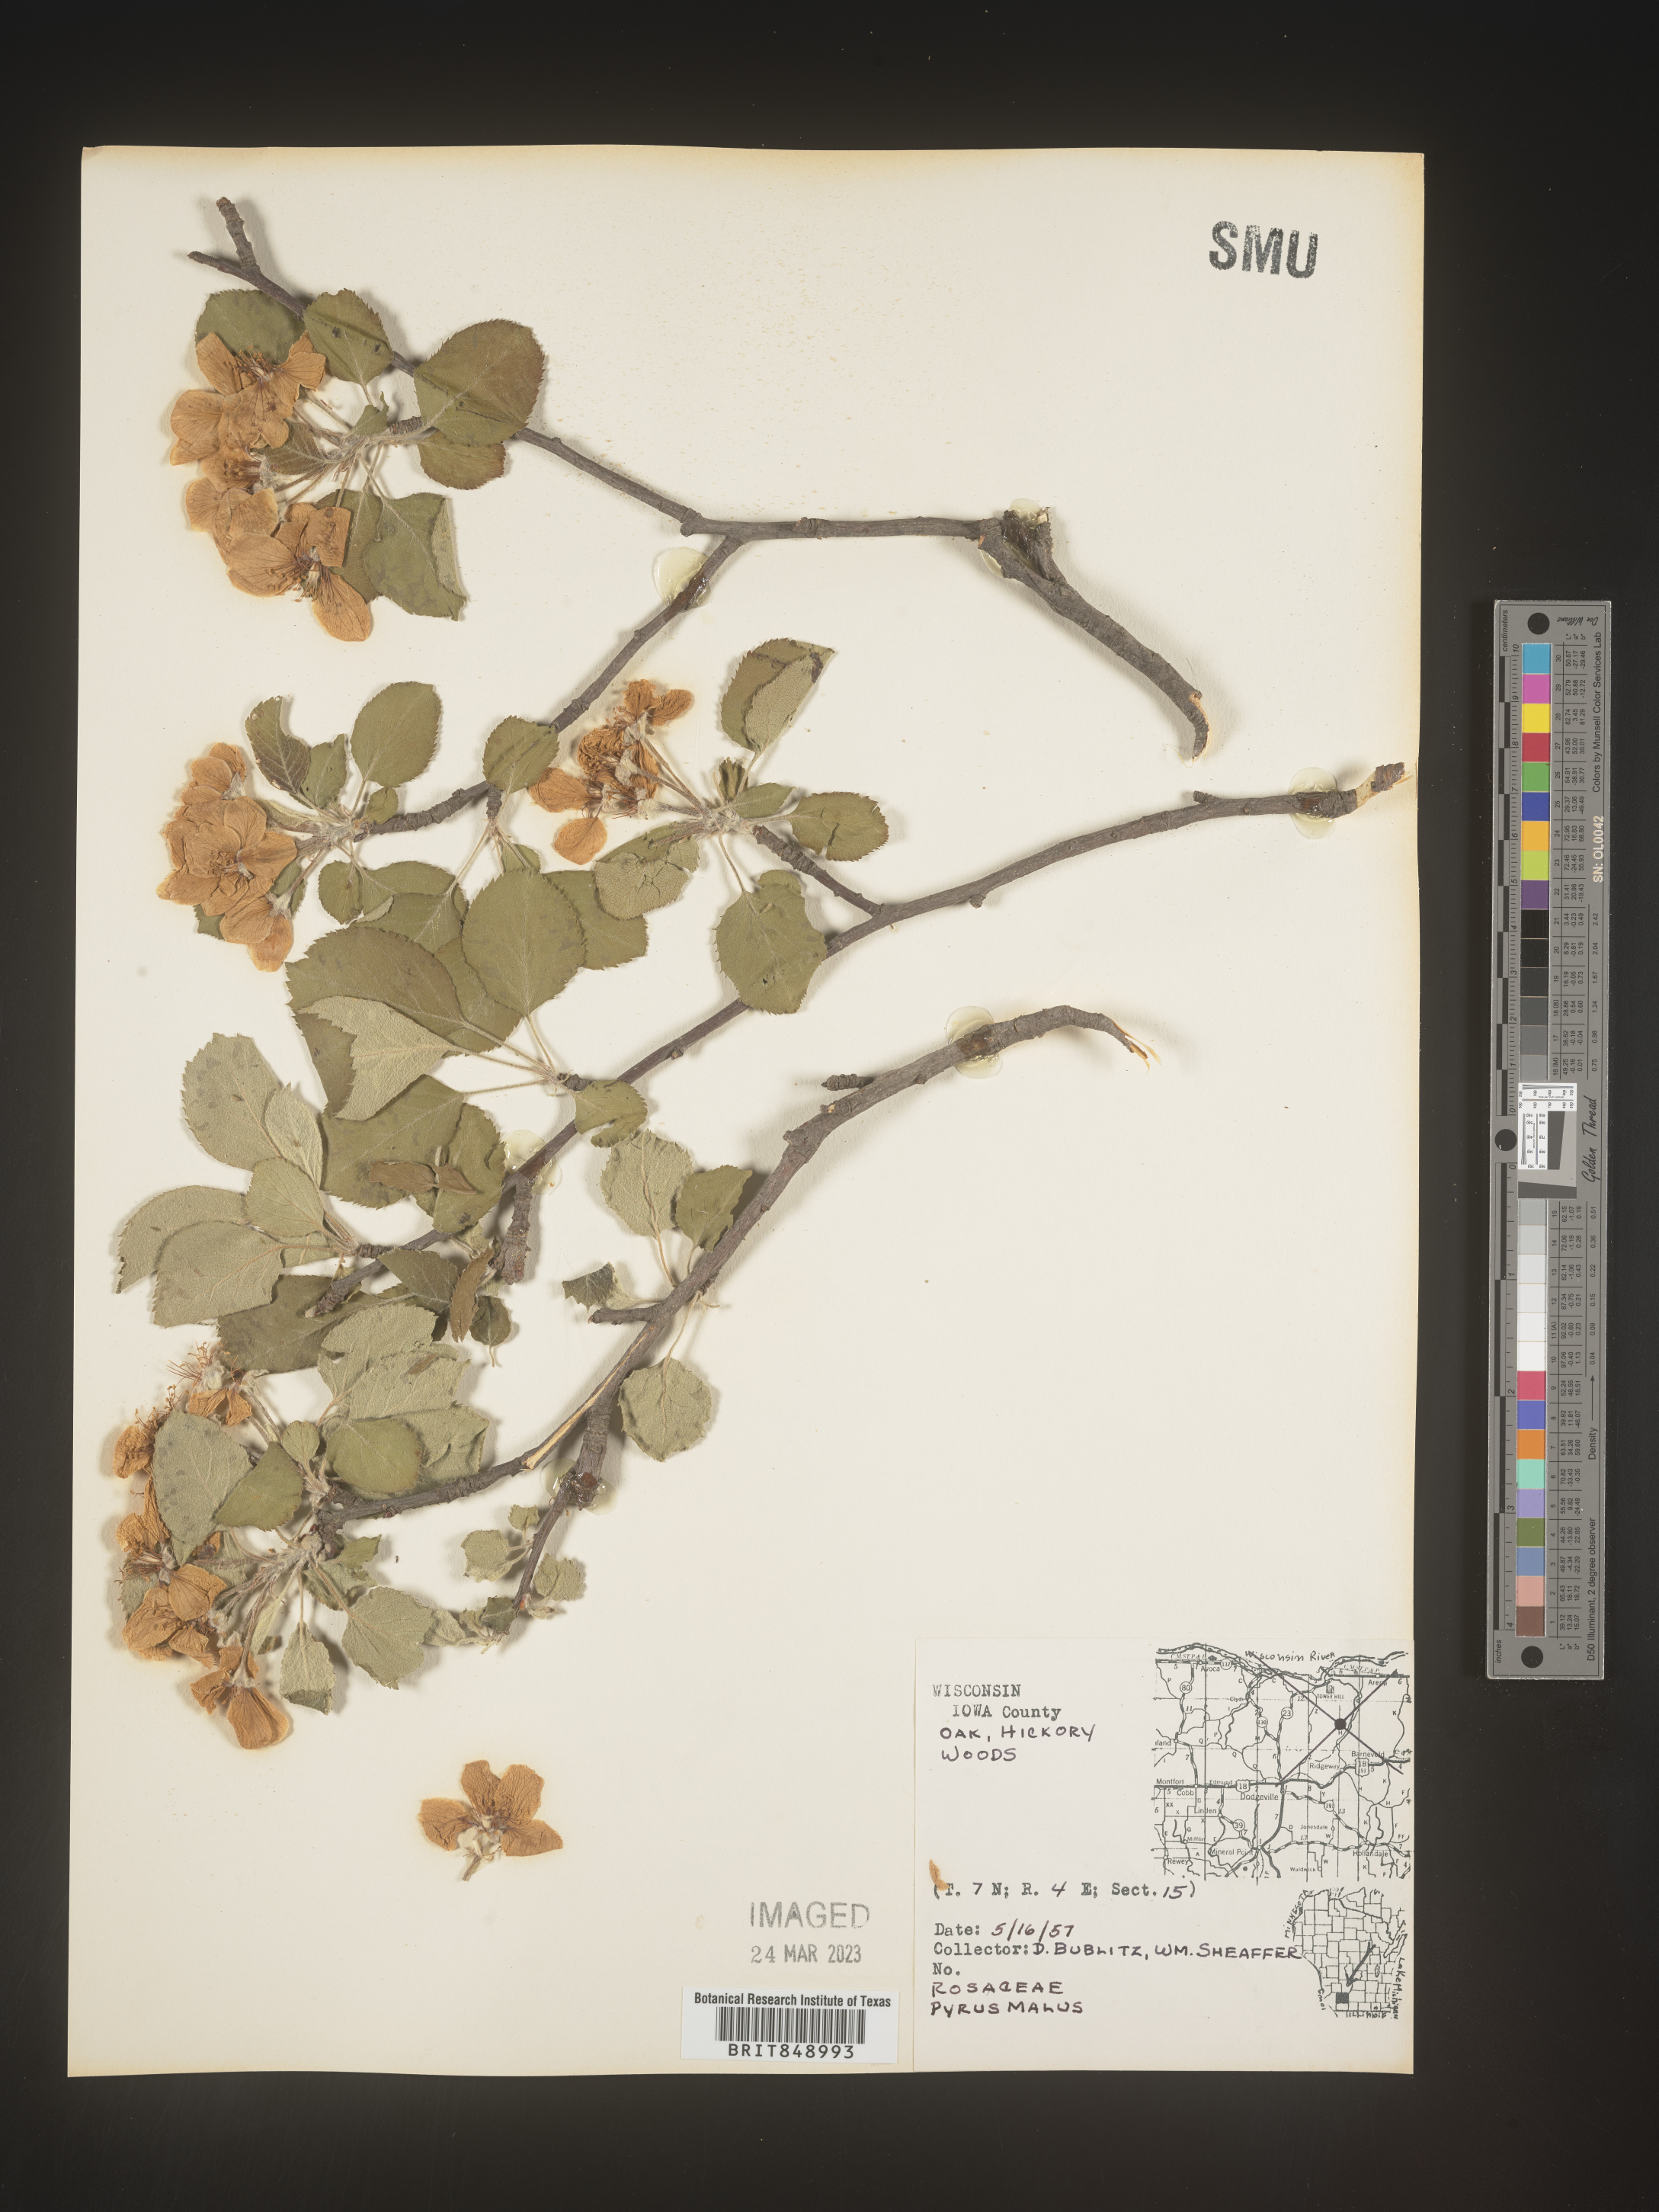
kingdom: Plantae
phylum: Tracheophyta
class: Magnoliopsida
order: Rosales
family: Rosaceae
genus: Malus
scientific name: Malus
